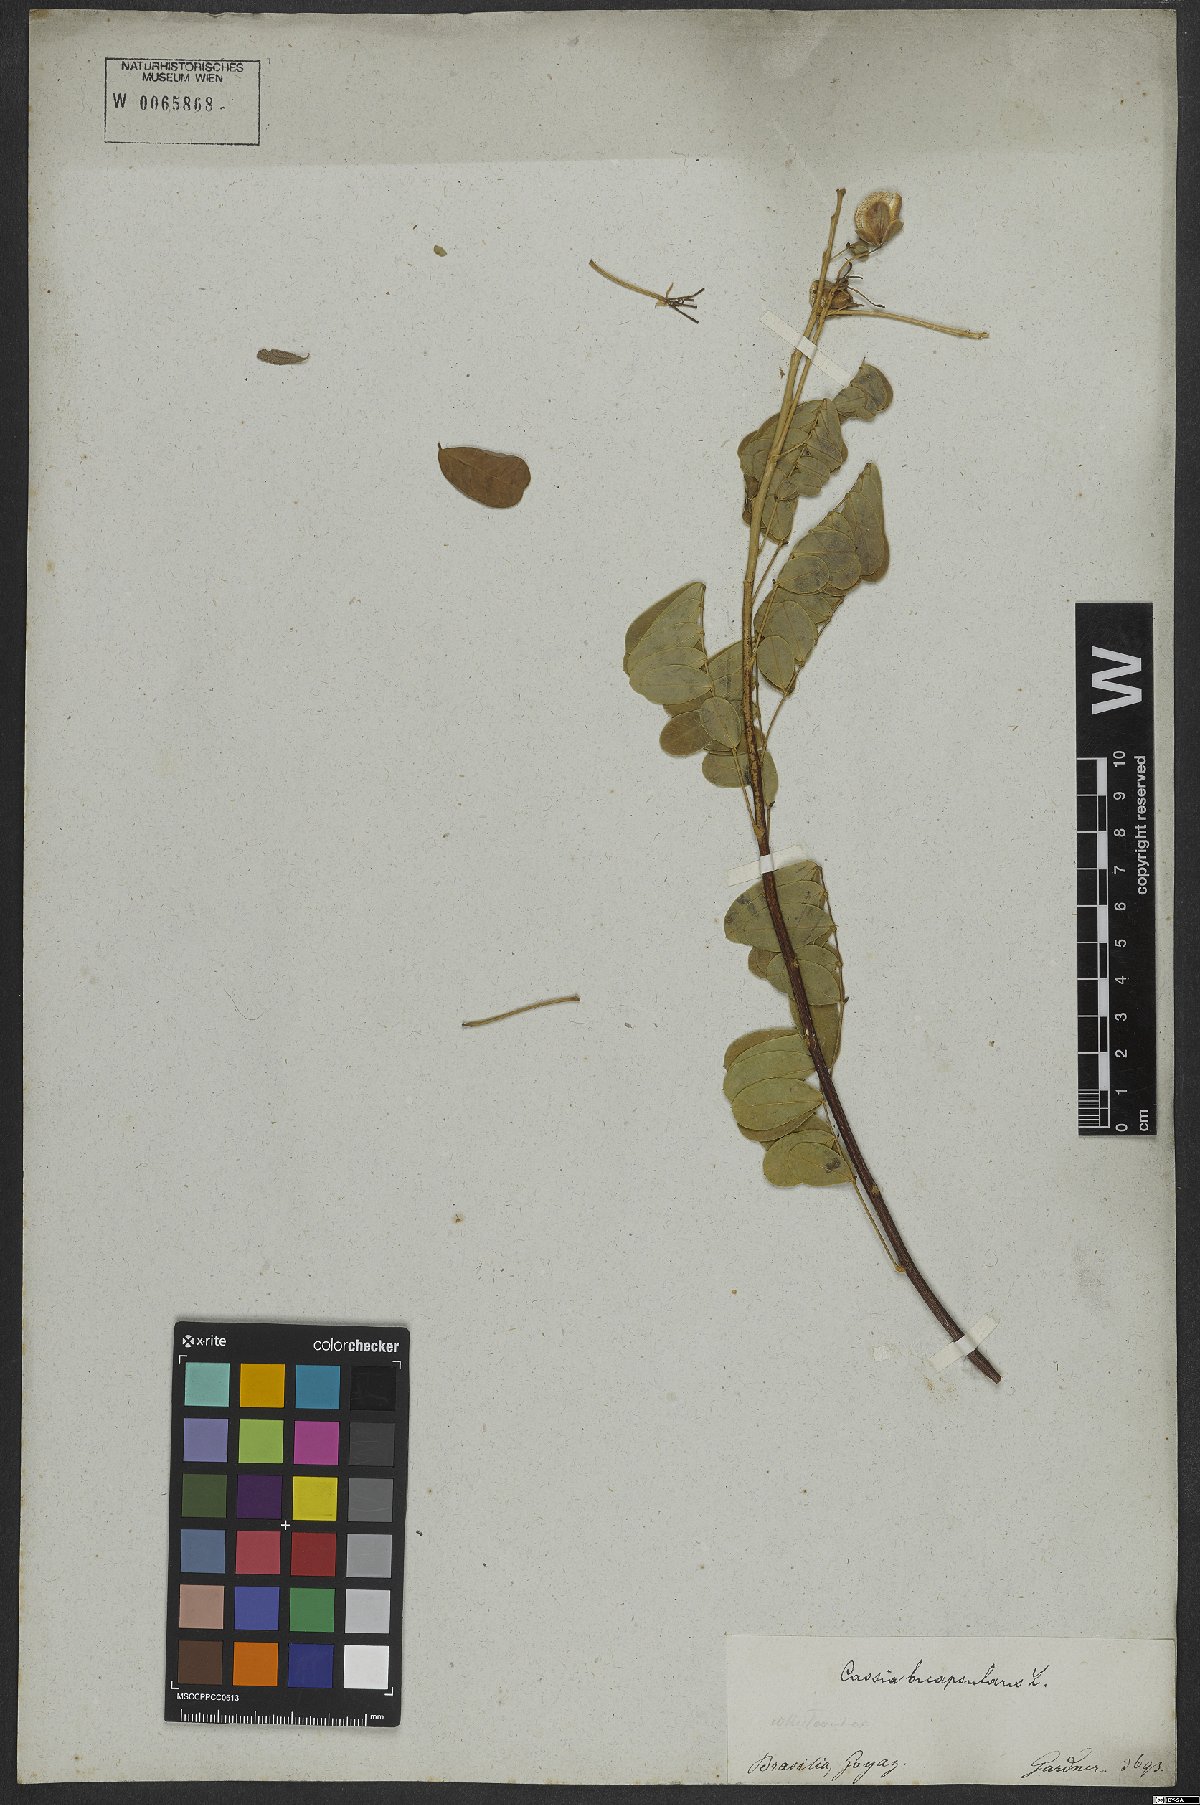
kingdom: Plantae
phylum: Tracheophyta
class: Magnoliopsida
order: Fabales
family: Fabaceae
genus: Senna
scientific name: Senna bicapsularis
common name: Christmasbush
